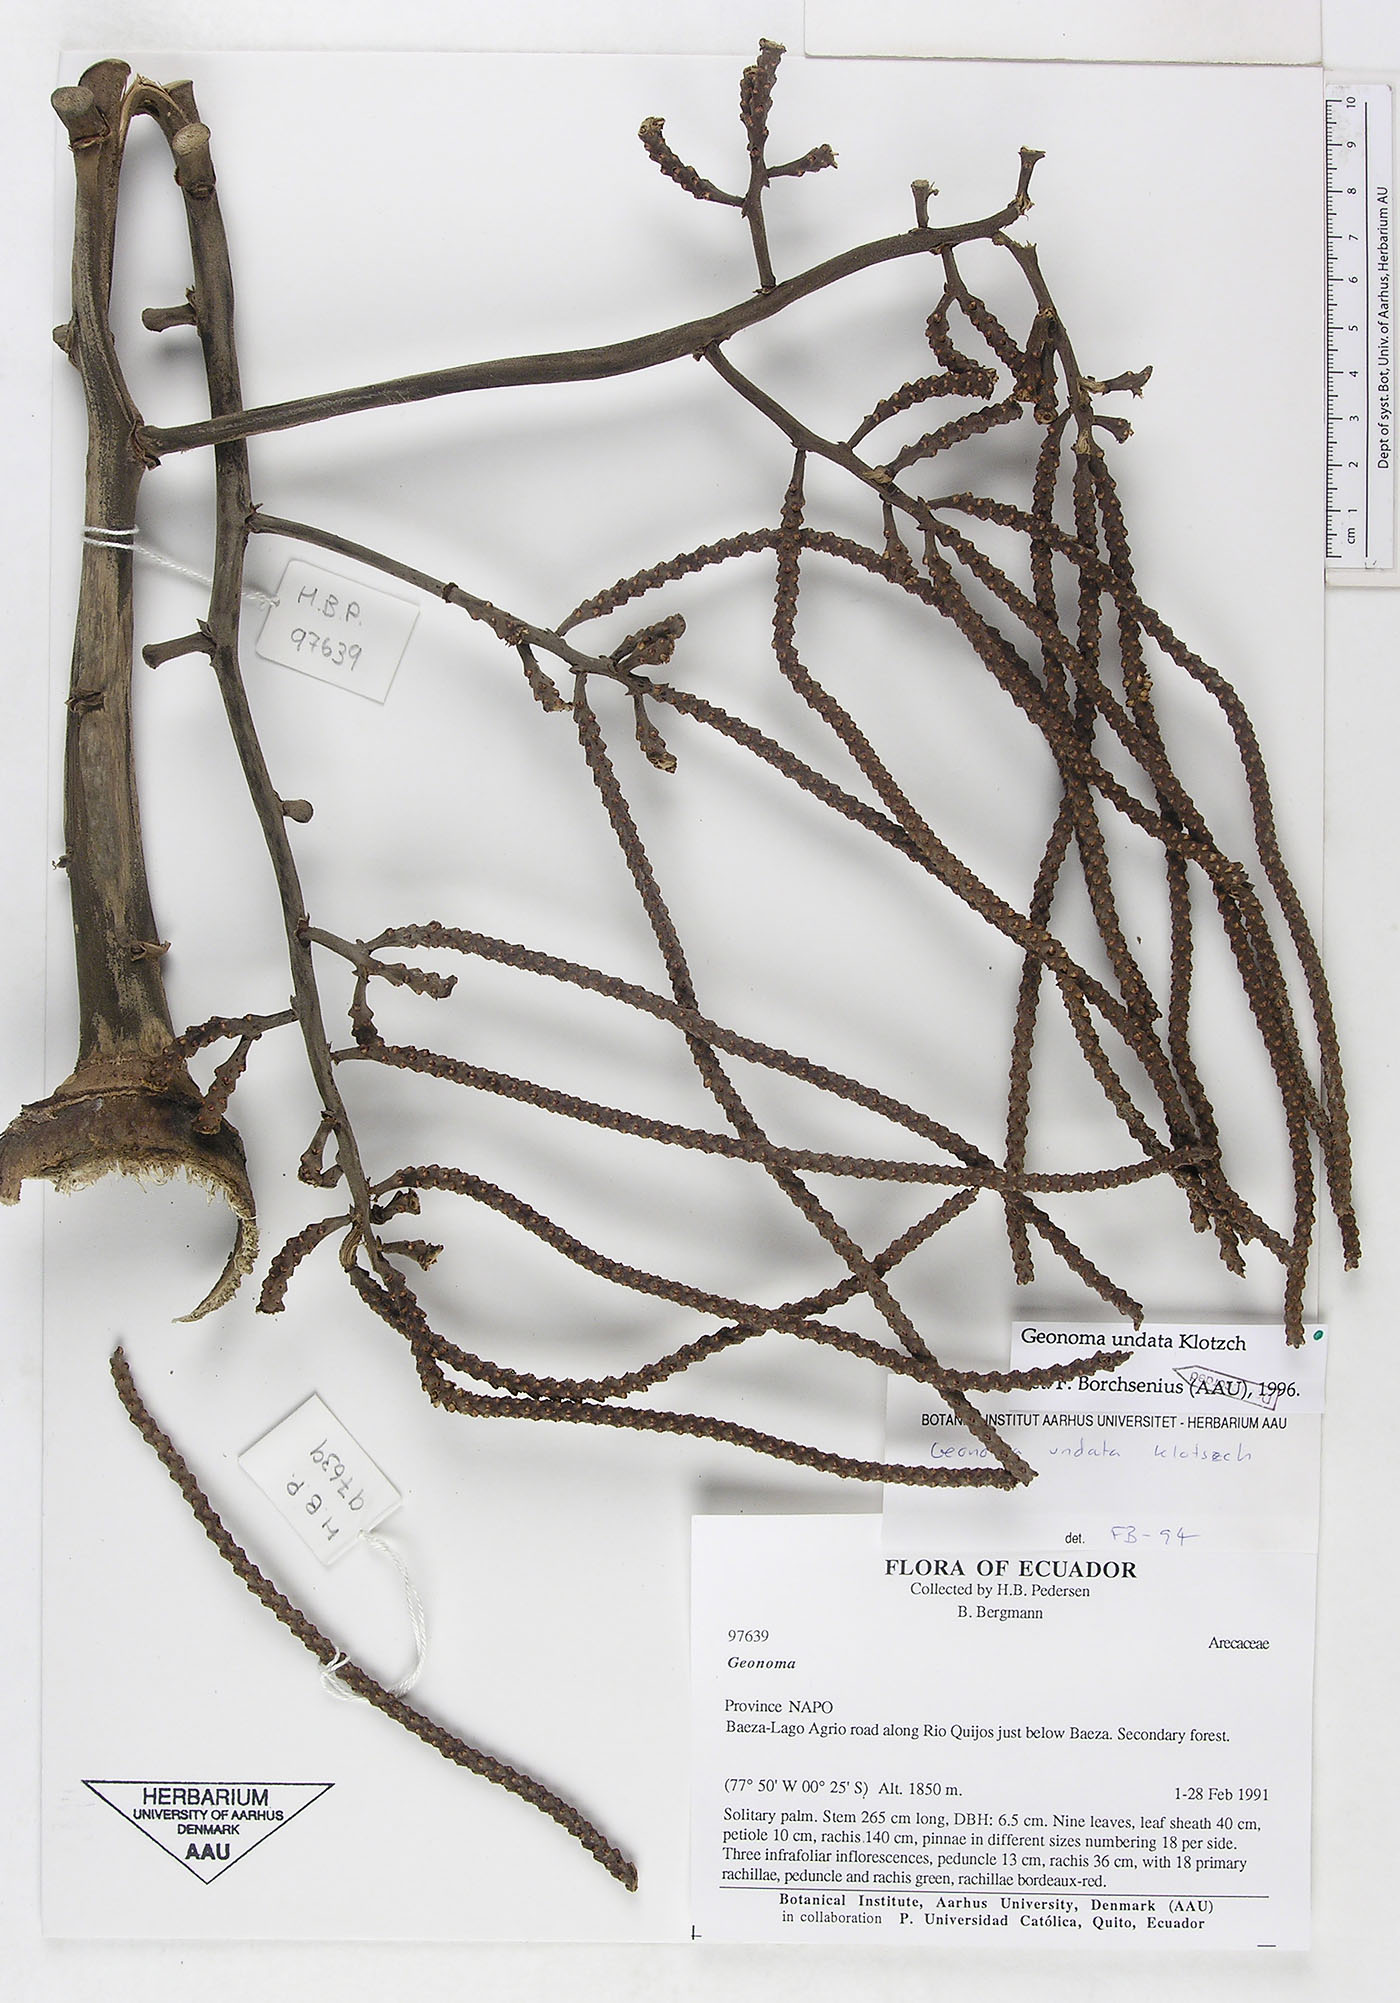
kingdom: Plantae
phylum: Tracheophyta
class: Liliopsida
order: Arecales
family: Arecaceae
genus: Geonoma
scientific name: Geonoma undata
